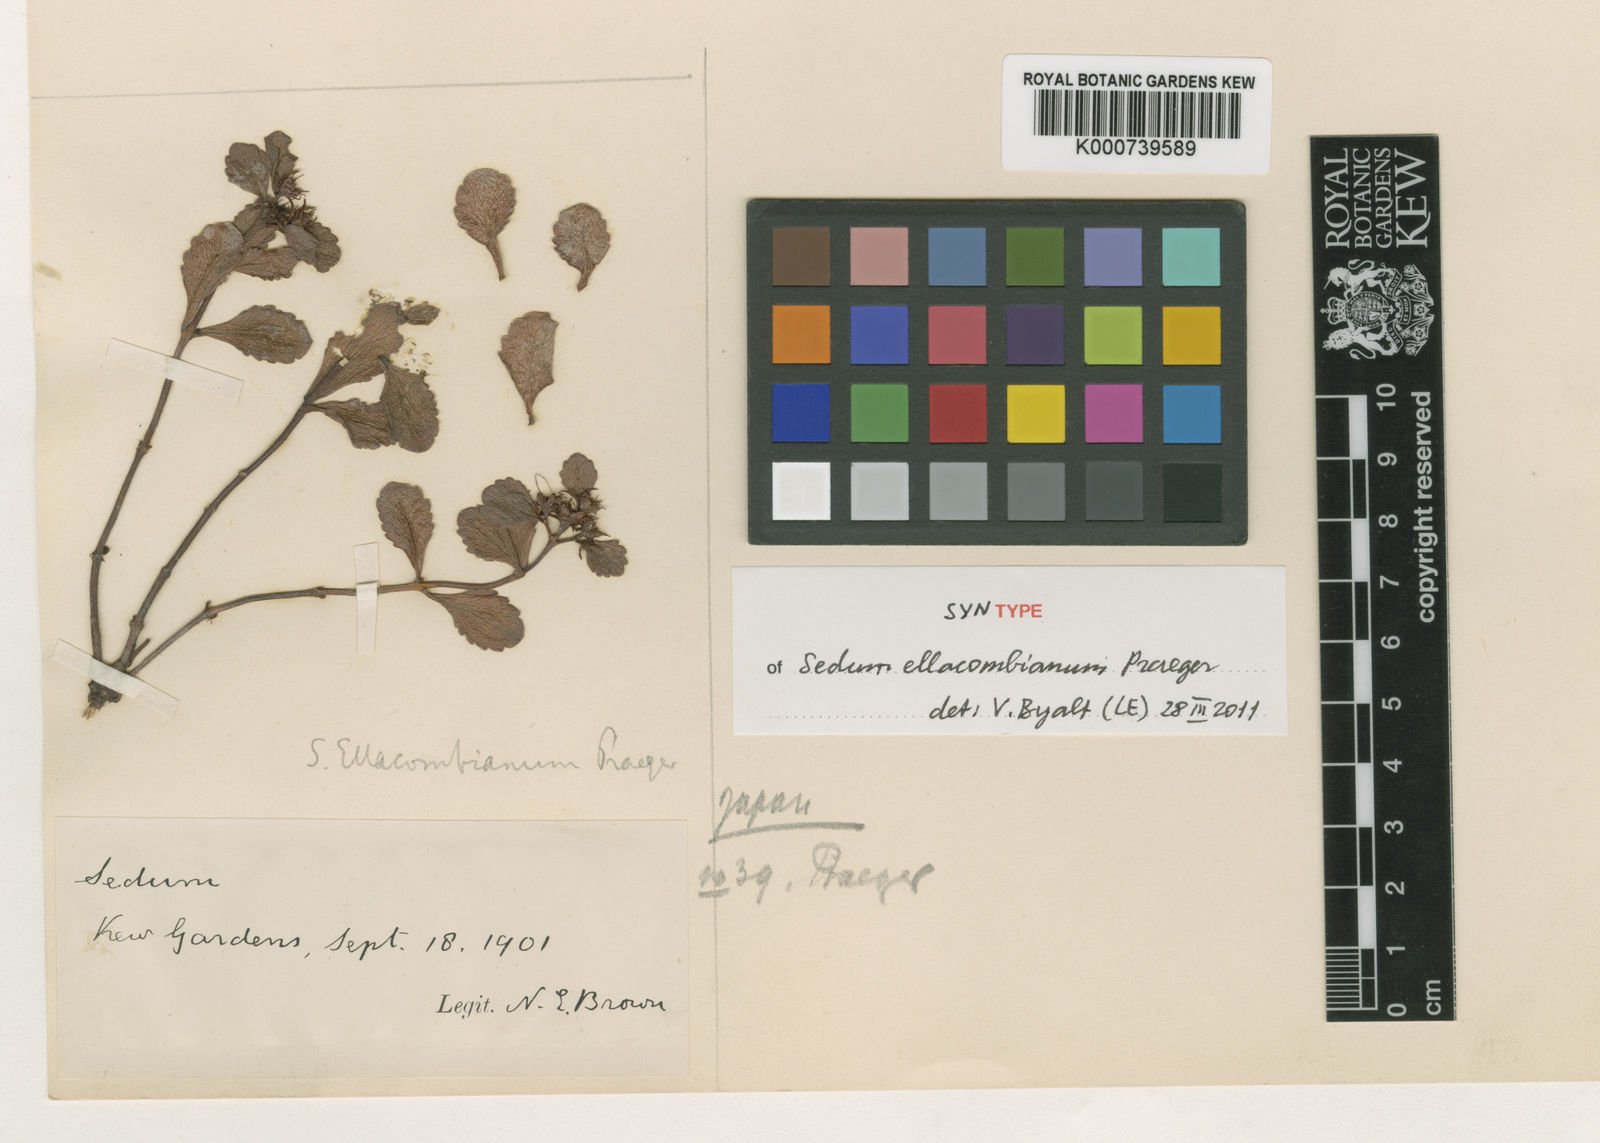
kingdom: Plantae
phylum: Tracheophyta
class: Magnoliopsida
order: Saxifragales
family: Crassulaceae
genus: Phedimus
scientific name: Phedimus kamtschaticus
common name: Orange stonecrop
